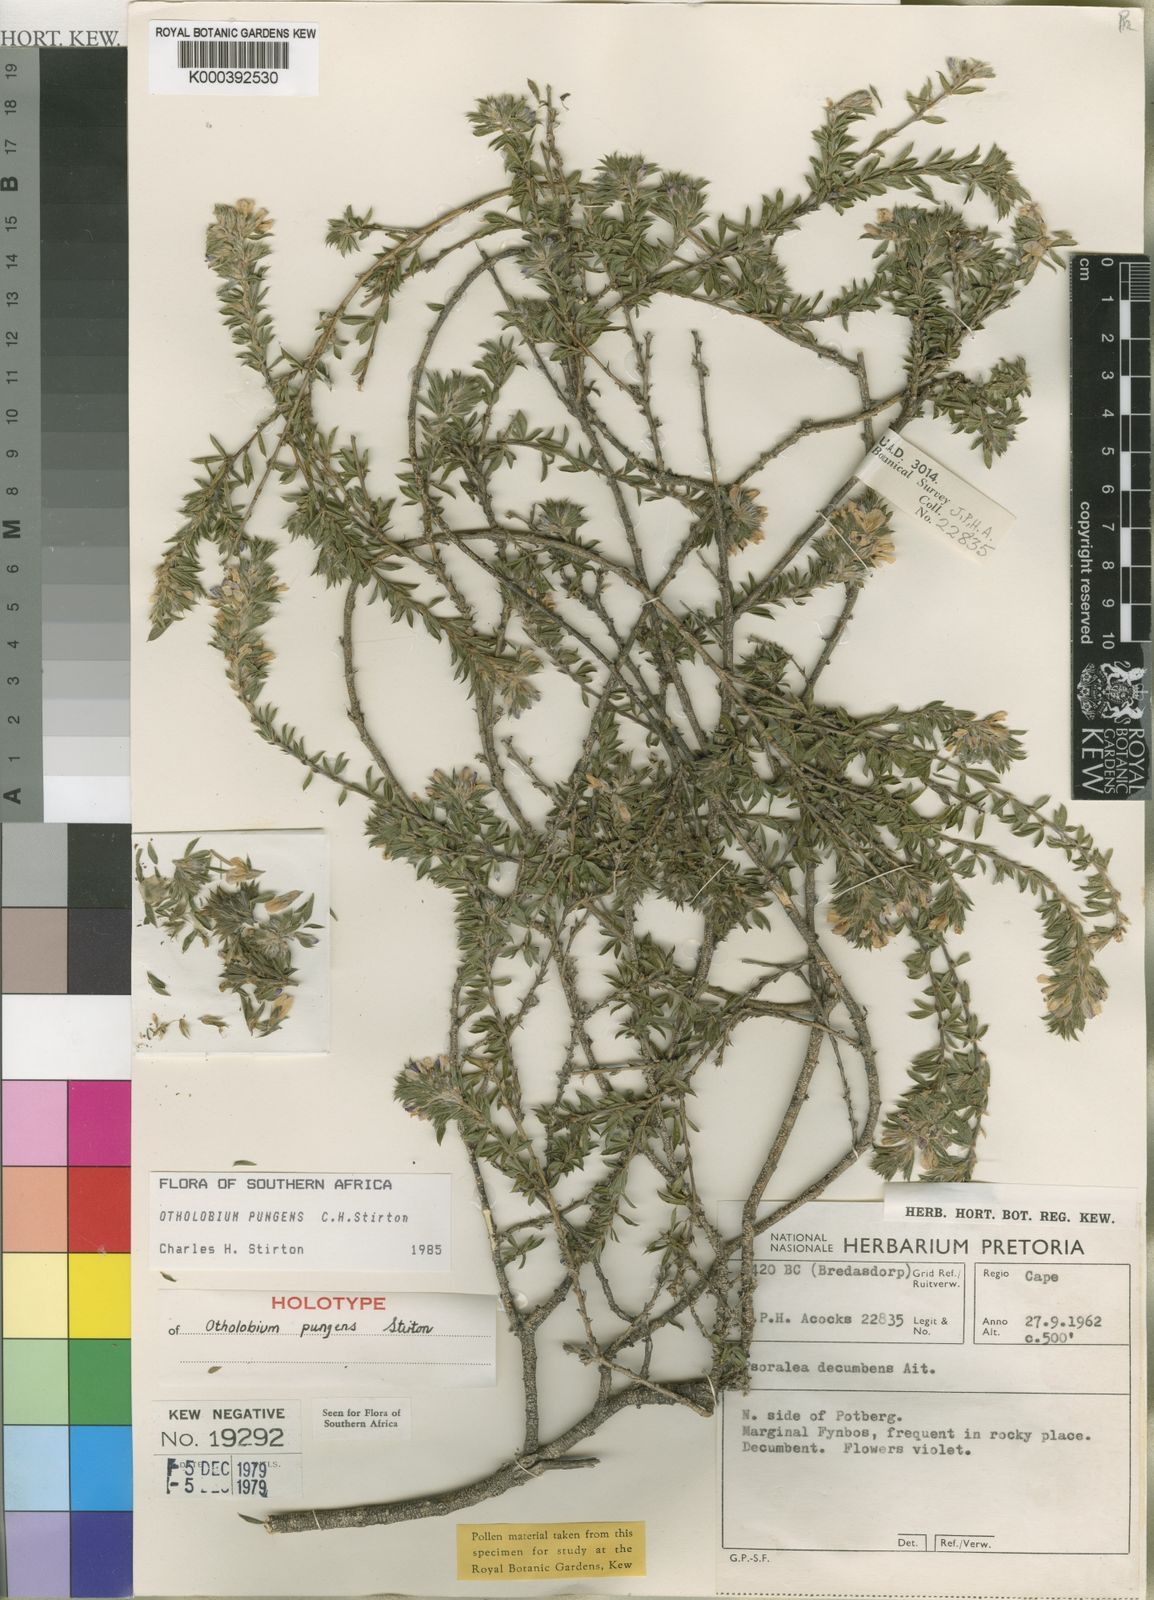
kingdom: Plantae
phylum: Tracheophyta
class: Magnoliopsida
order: Fabales
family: Fabaceae
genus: Psoralea
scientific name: Psoralea pungens
